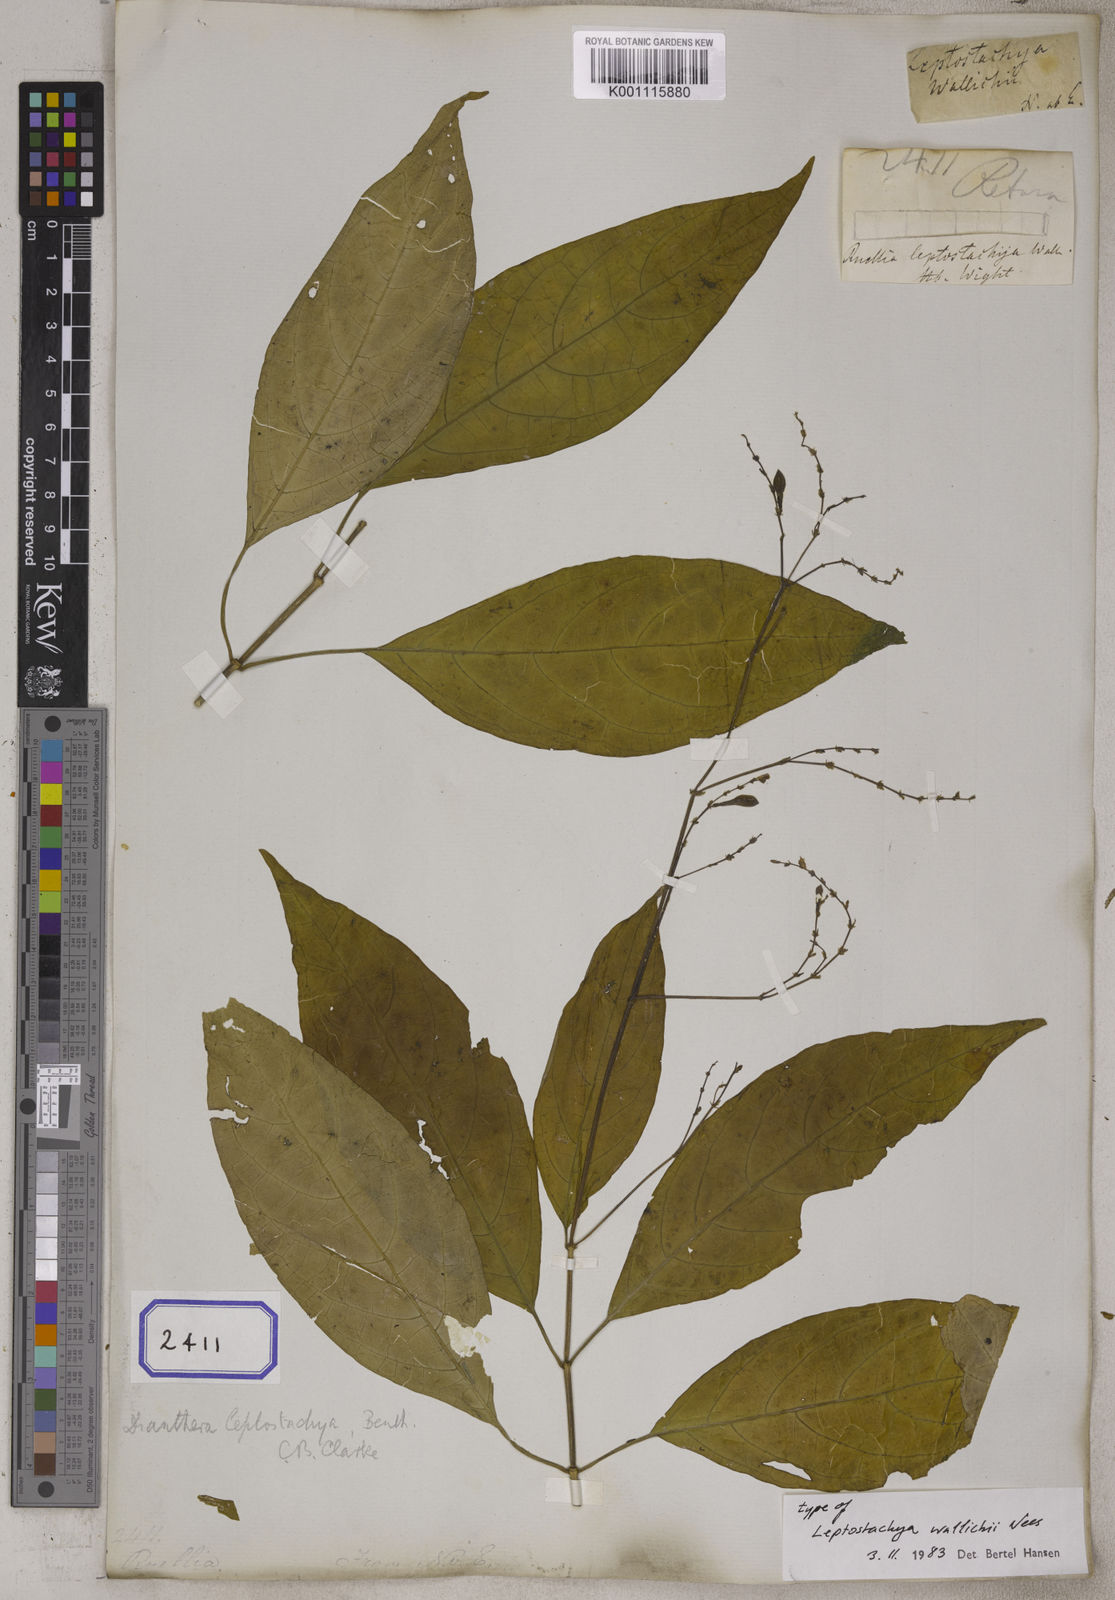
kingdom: Plantae
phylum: Tracheophyta
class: Magnoliopsida
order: Lamiales
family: Acanthaceae
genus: Leptostachya
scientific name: Leptostachya wallichii
